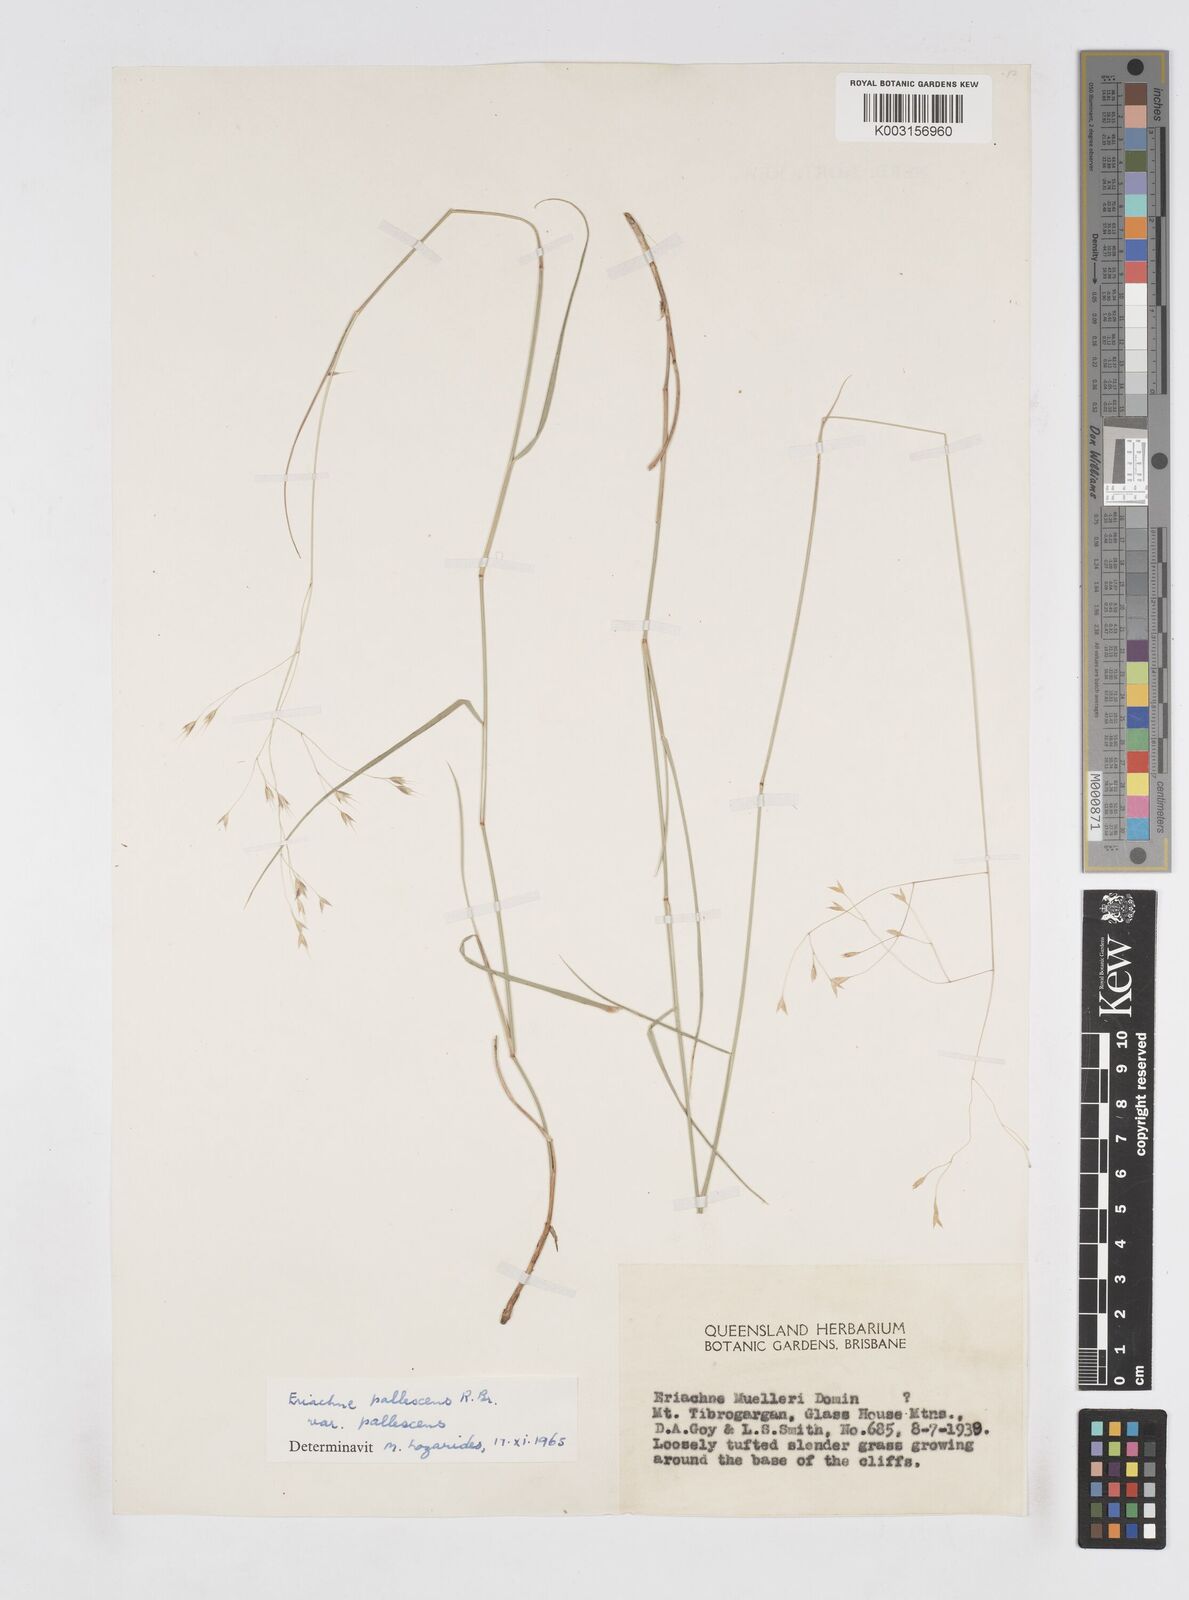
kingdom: Plantae
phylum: Tracheophyta
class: Liliopsida
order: Poales
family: Poaceae
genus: Eriachne
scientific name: Eriachne pallescens
